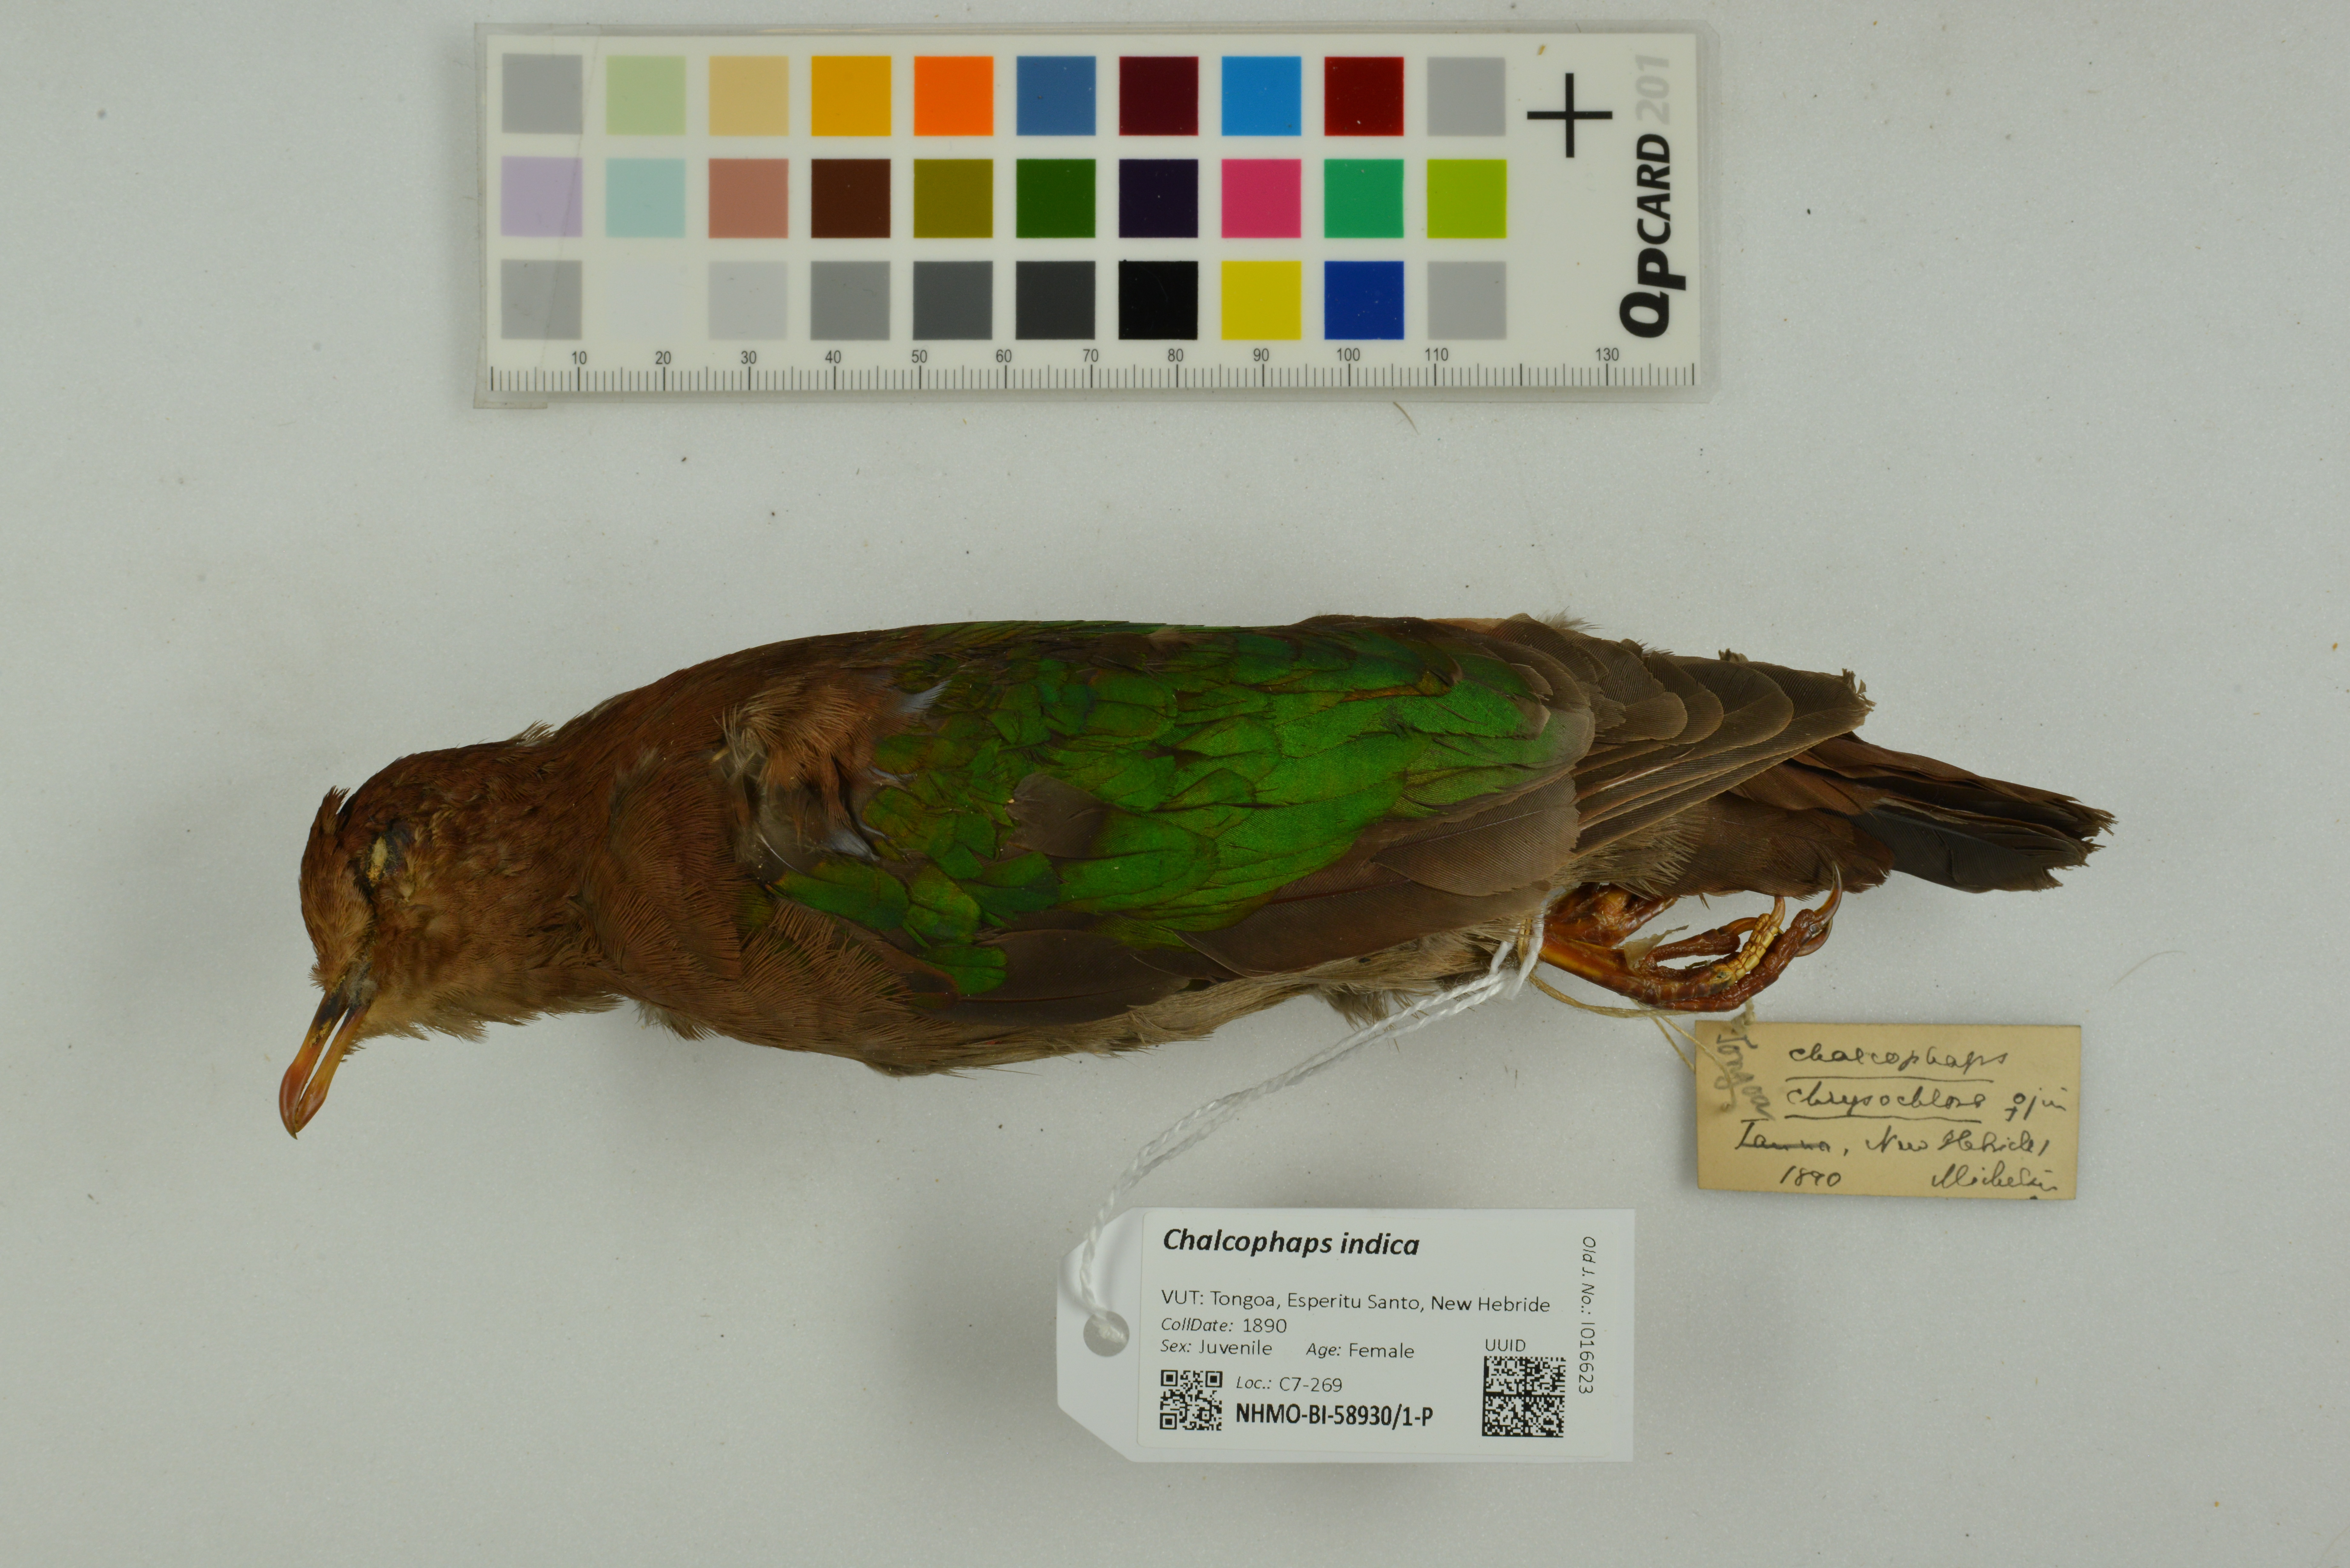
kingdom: Animalia
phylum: Chordata
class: Aves
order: Columbiformes
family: Columbidae
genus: Chalcophaps
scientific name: Chalcophaps indica
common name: Common emerald dove
